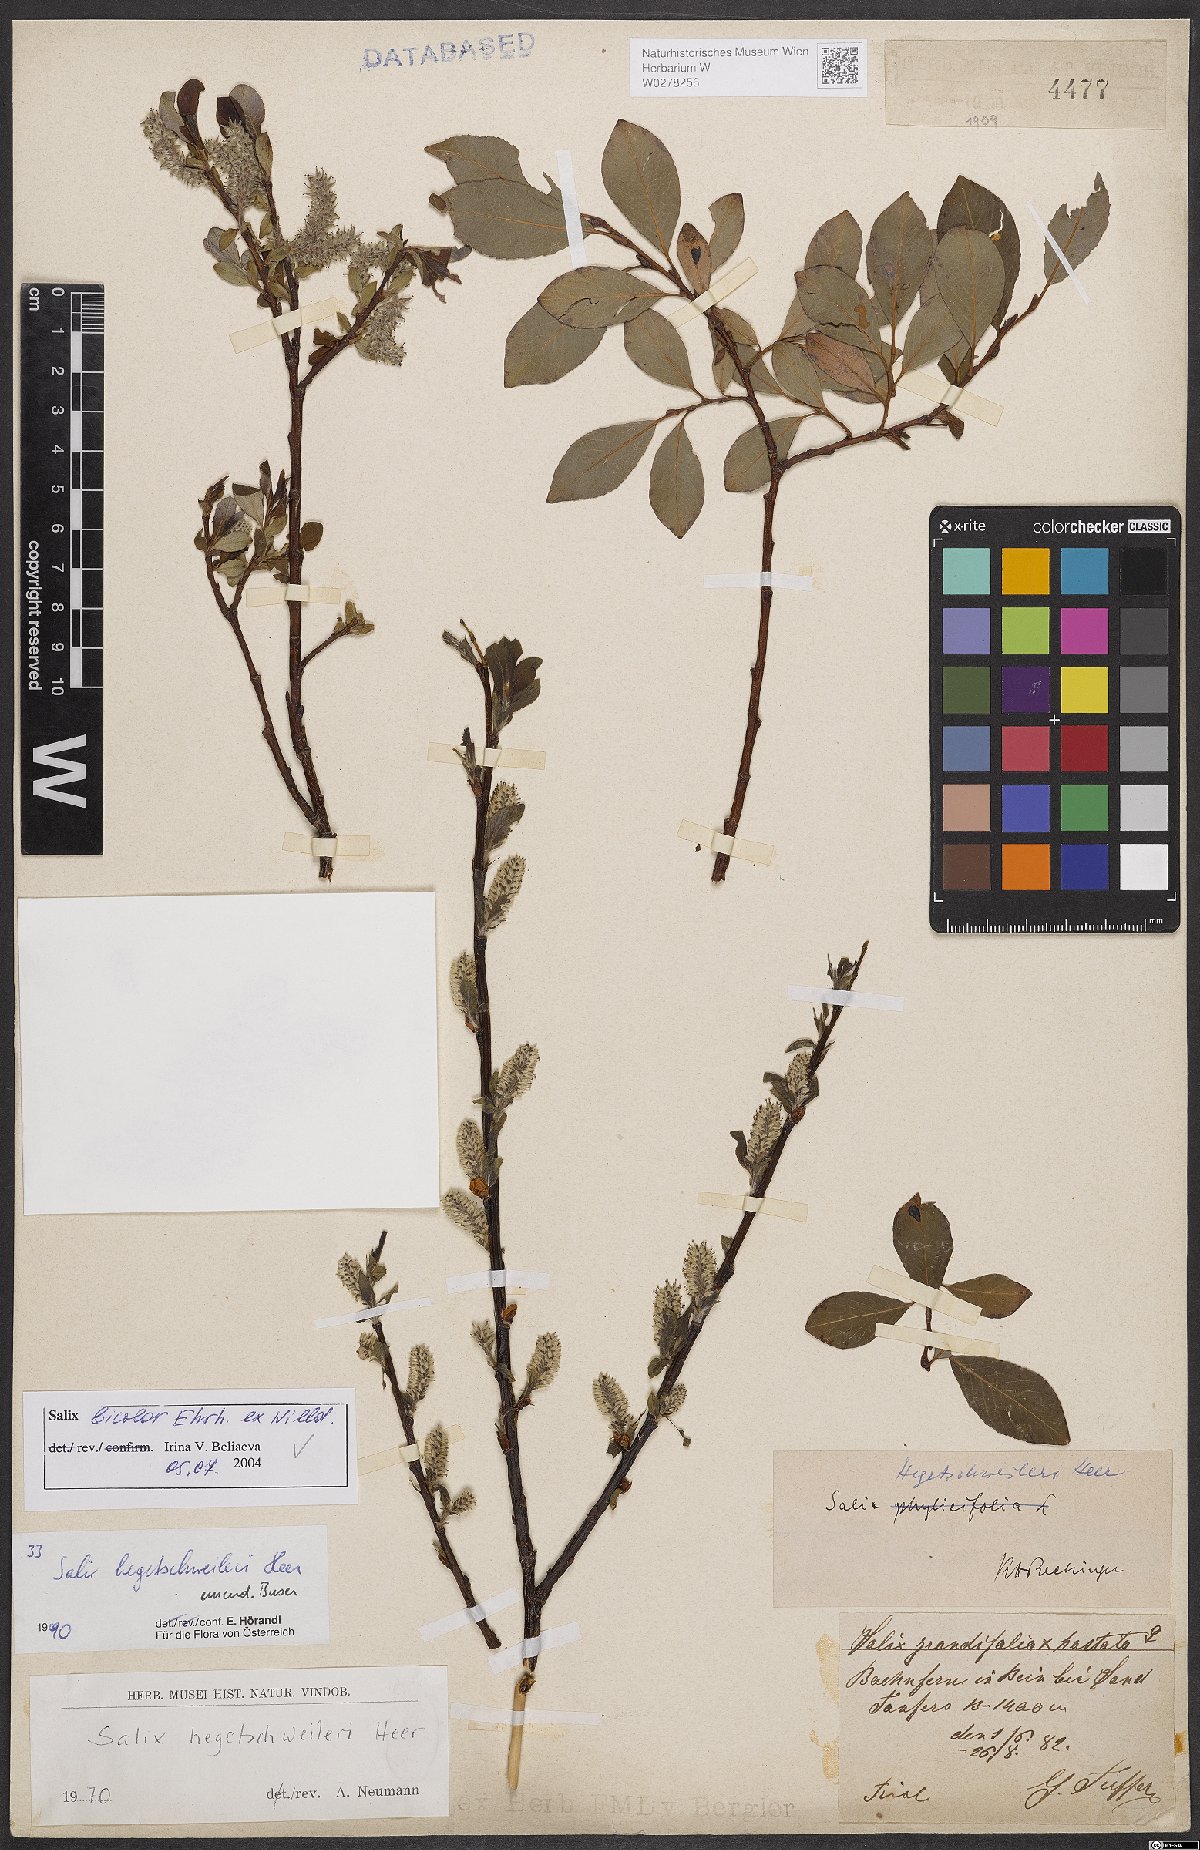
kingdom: Plantae
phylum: Tracheophyta
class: Magnoliopsida
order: Malpighiales
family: Salicaceae
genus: Salix
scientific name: Salix bicolor
